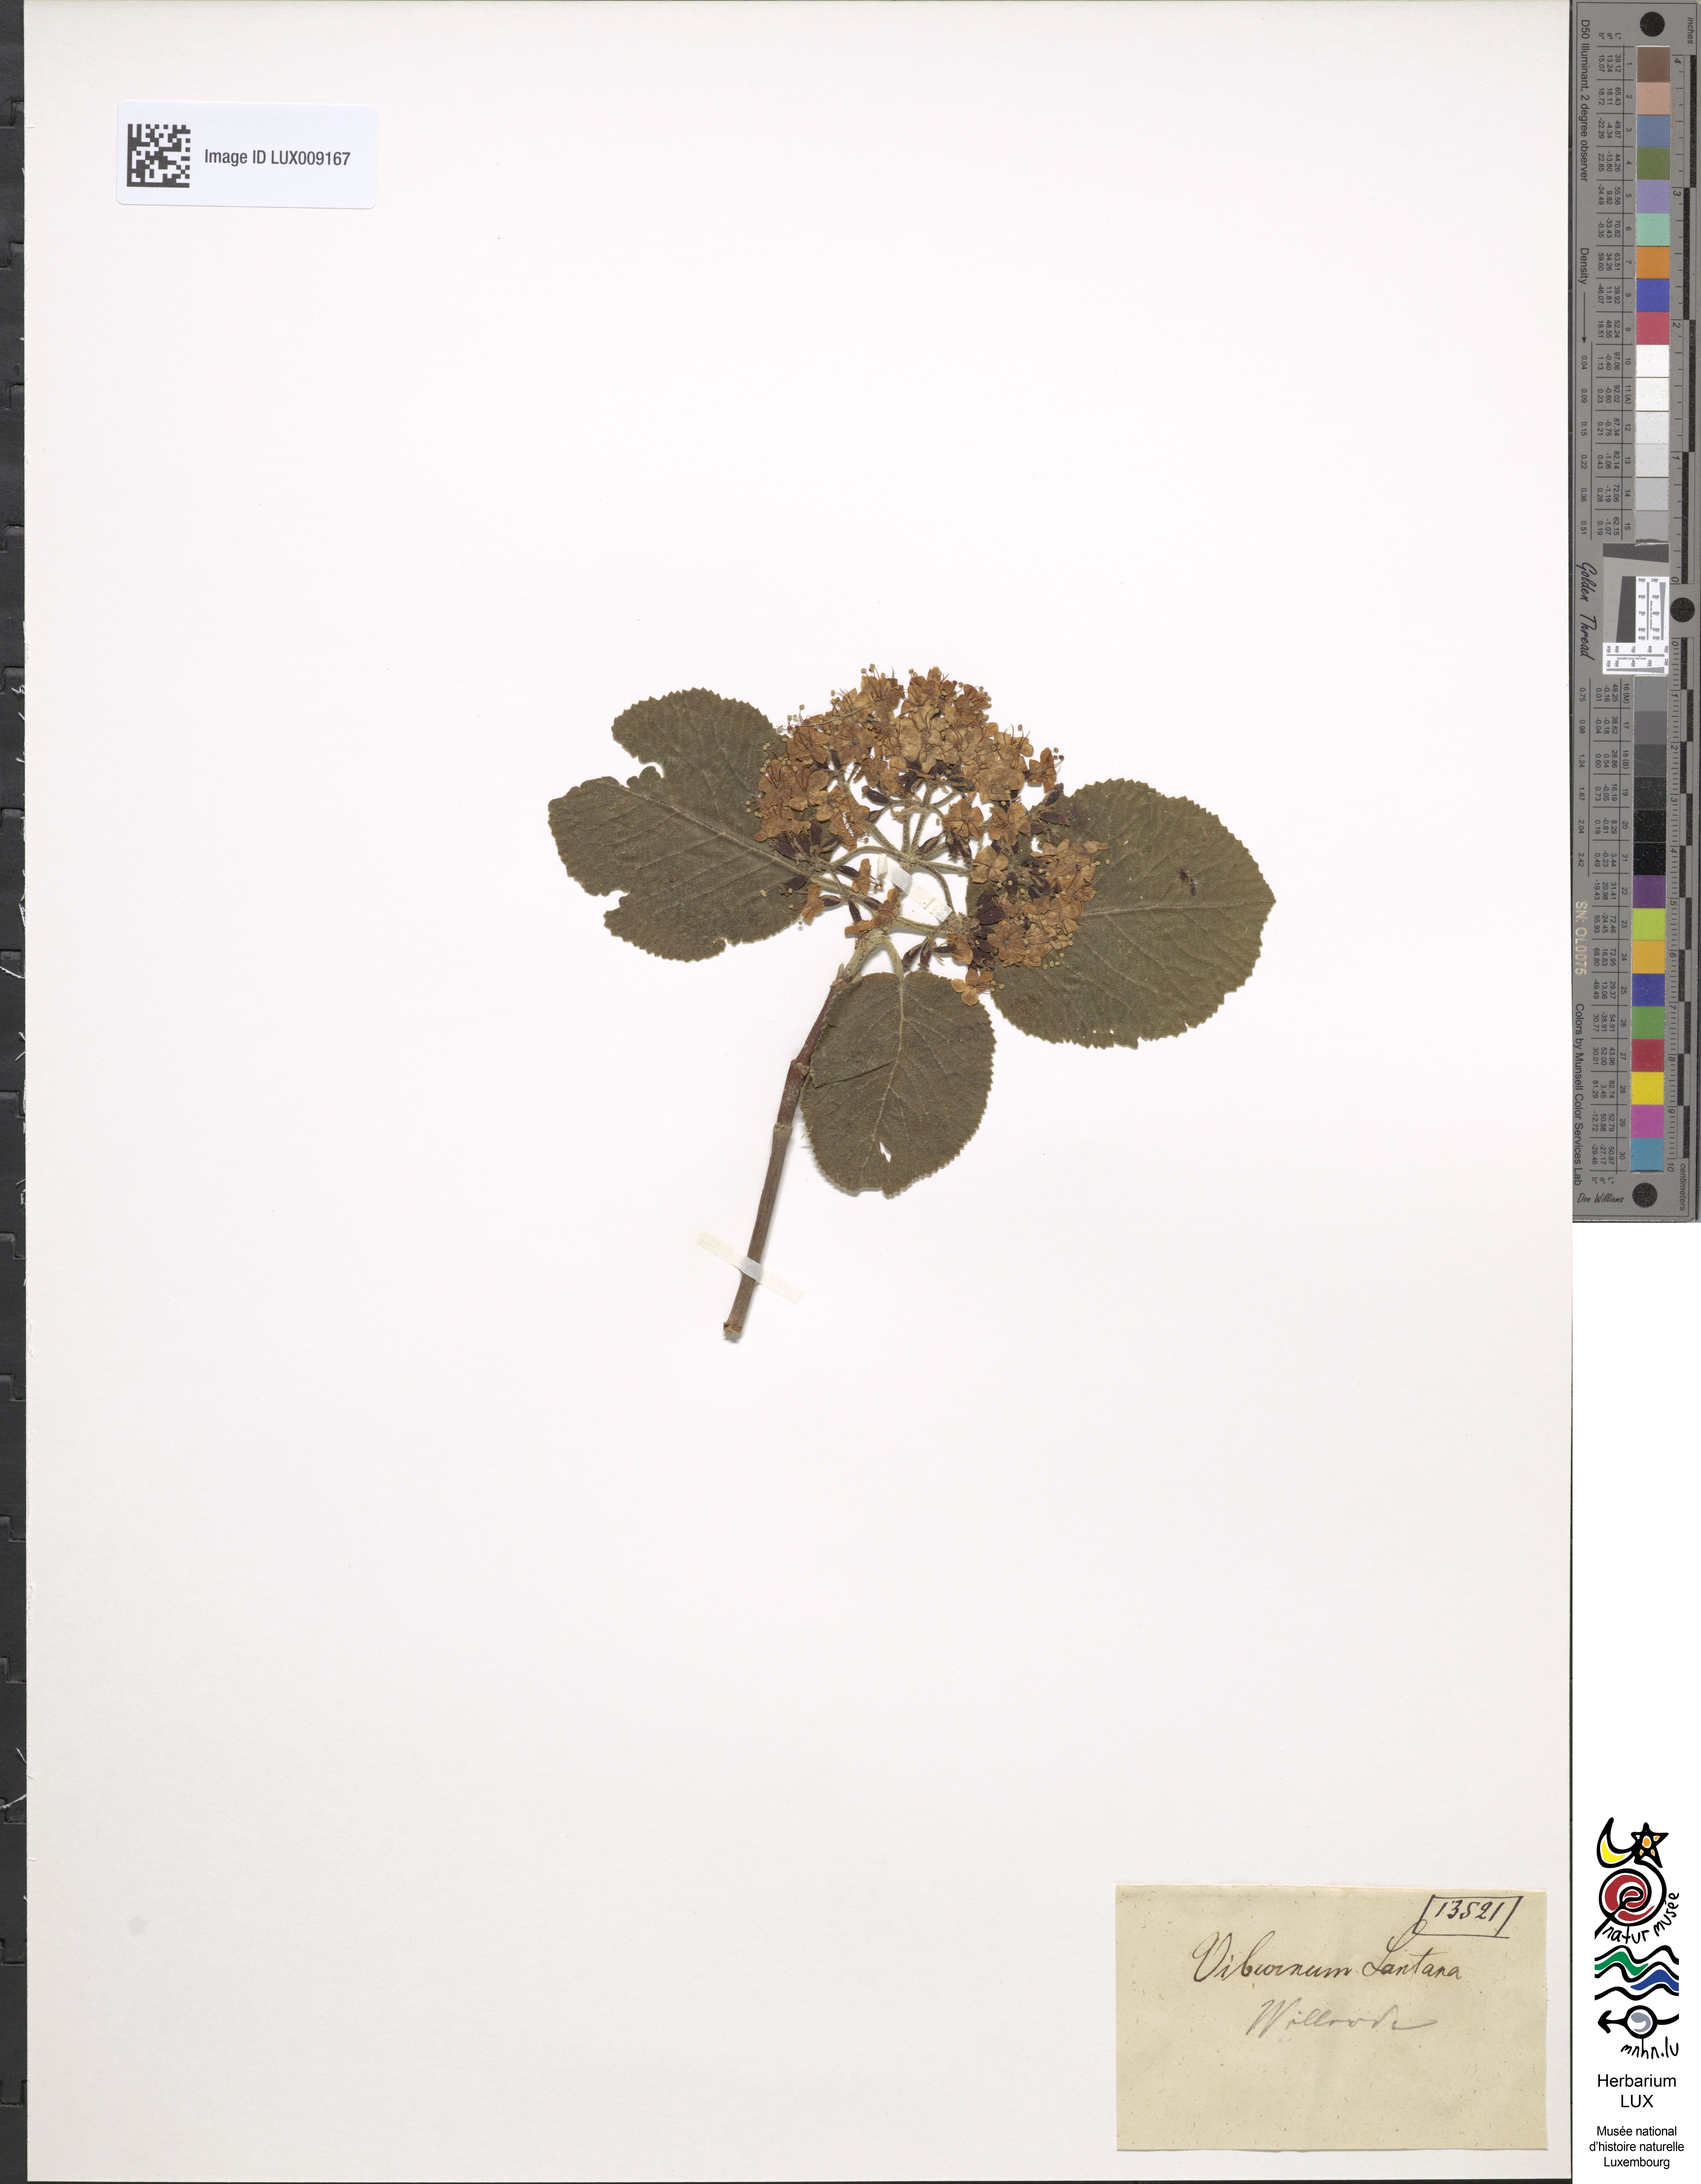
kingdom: Plantae
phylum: Tracheophyta
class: Magnoliopsida
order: Dipsacales
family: Viburnaceae
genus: Viburnum
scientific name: Viburnum lantana
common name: Wayfaring tree
